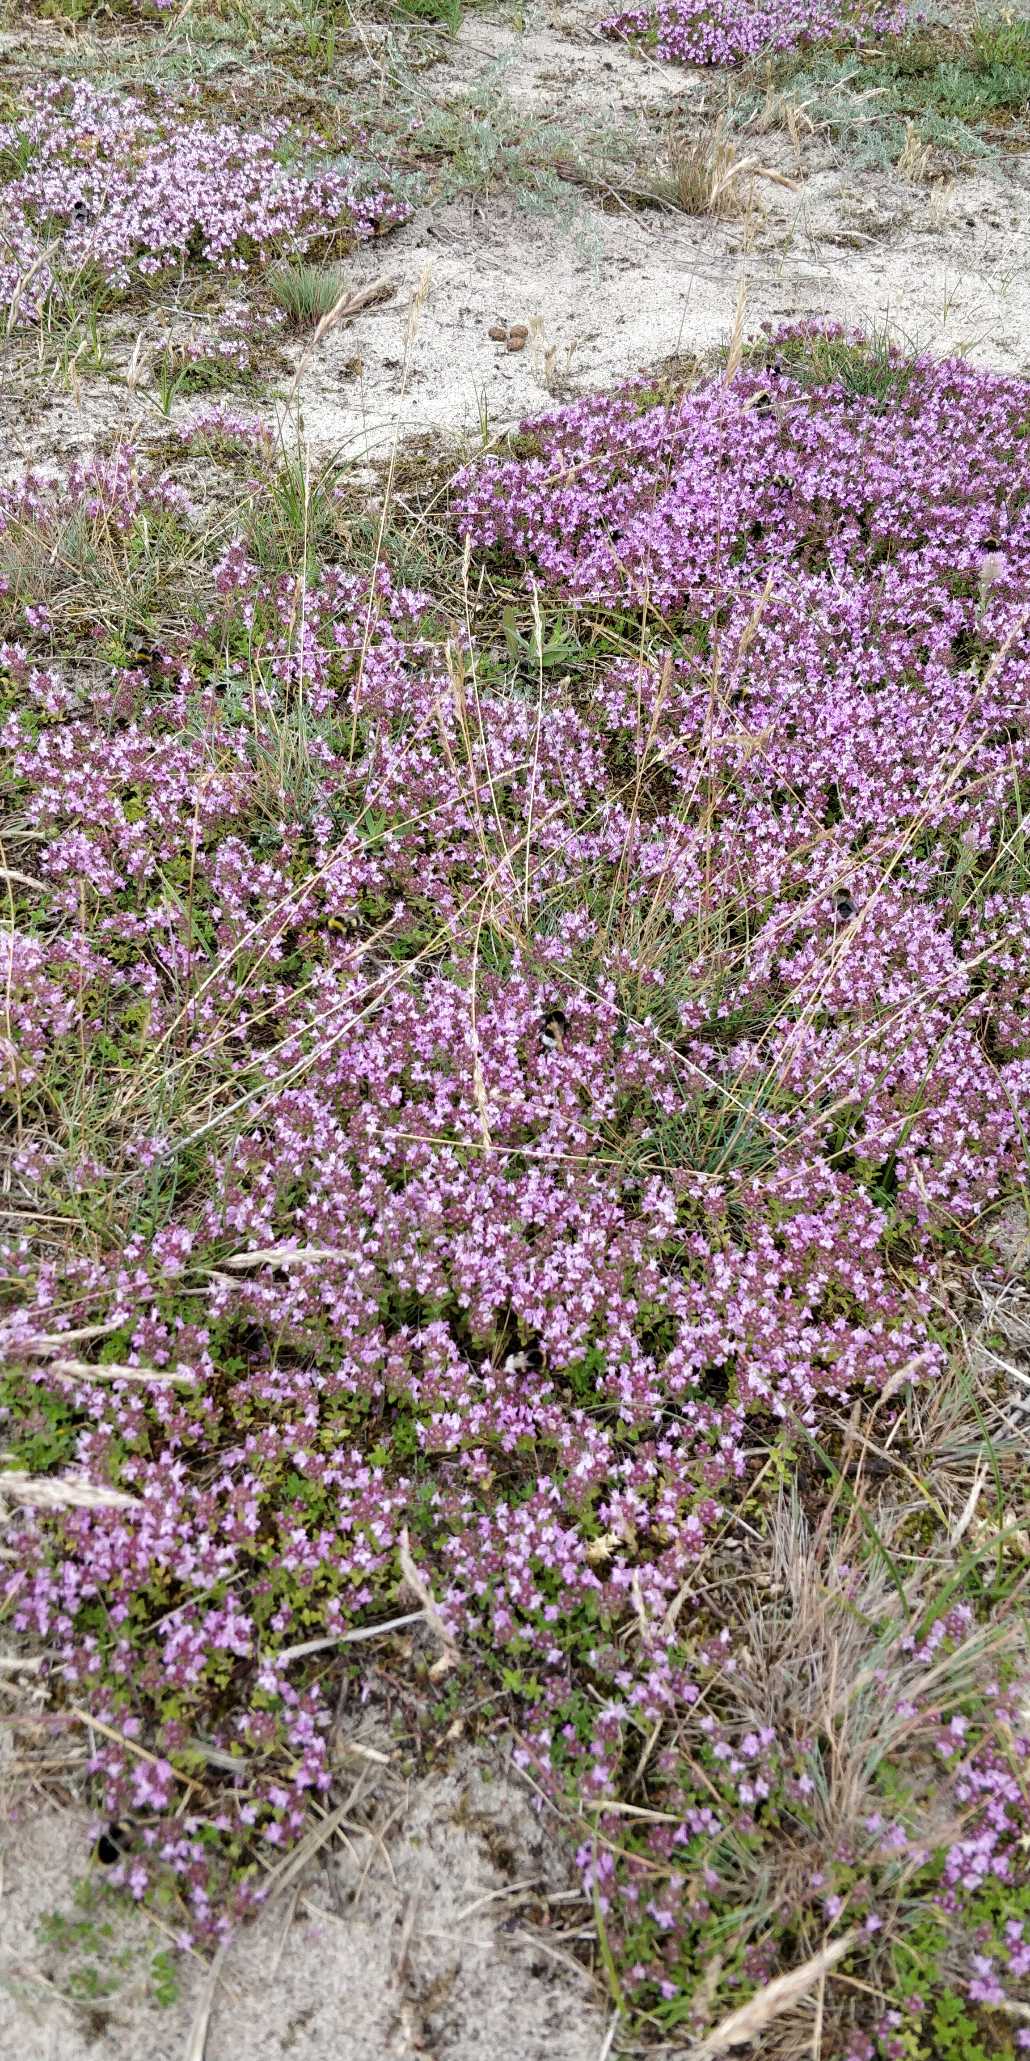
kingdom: Plantae
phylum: Tracheophyta
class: Magnoliopsida
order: Lamiales
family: Lamiaceae
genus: Thymus
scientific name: Thymus serpyllum
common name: Smalbladet timian
